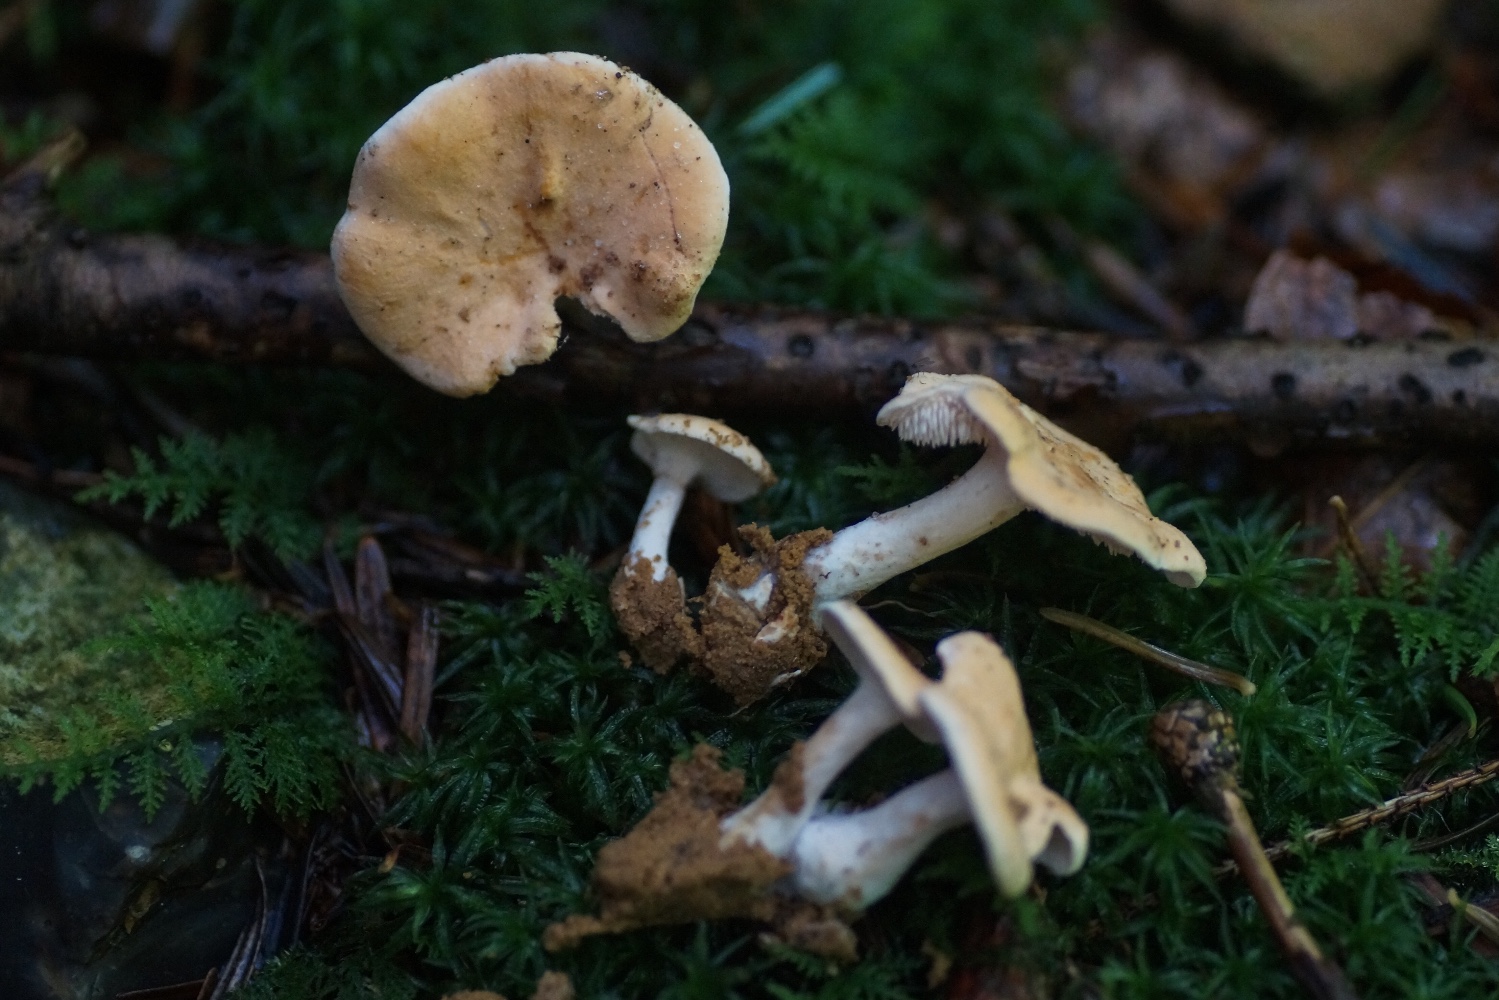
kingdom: Fungi
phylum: Basidiomycota
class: Agaricomycetes
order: Cantharellales
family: Hydnaceae
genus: Hydnum
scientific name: Hydnum
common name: pigsvamp
